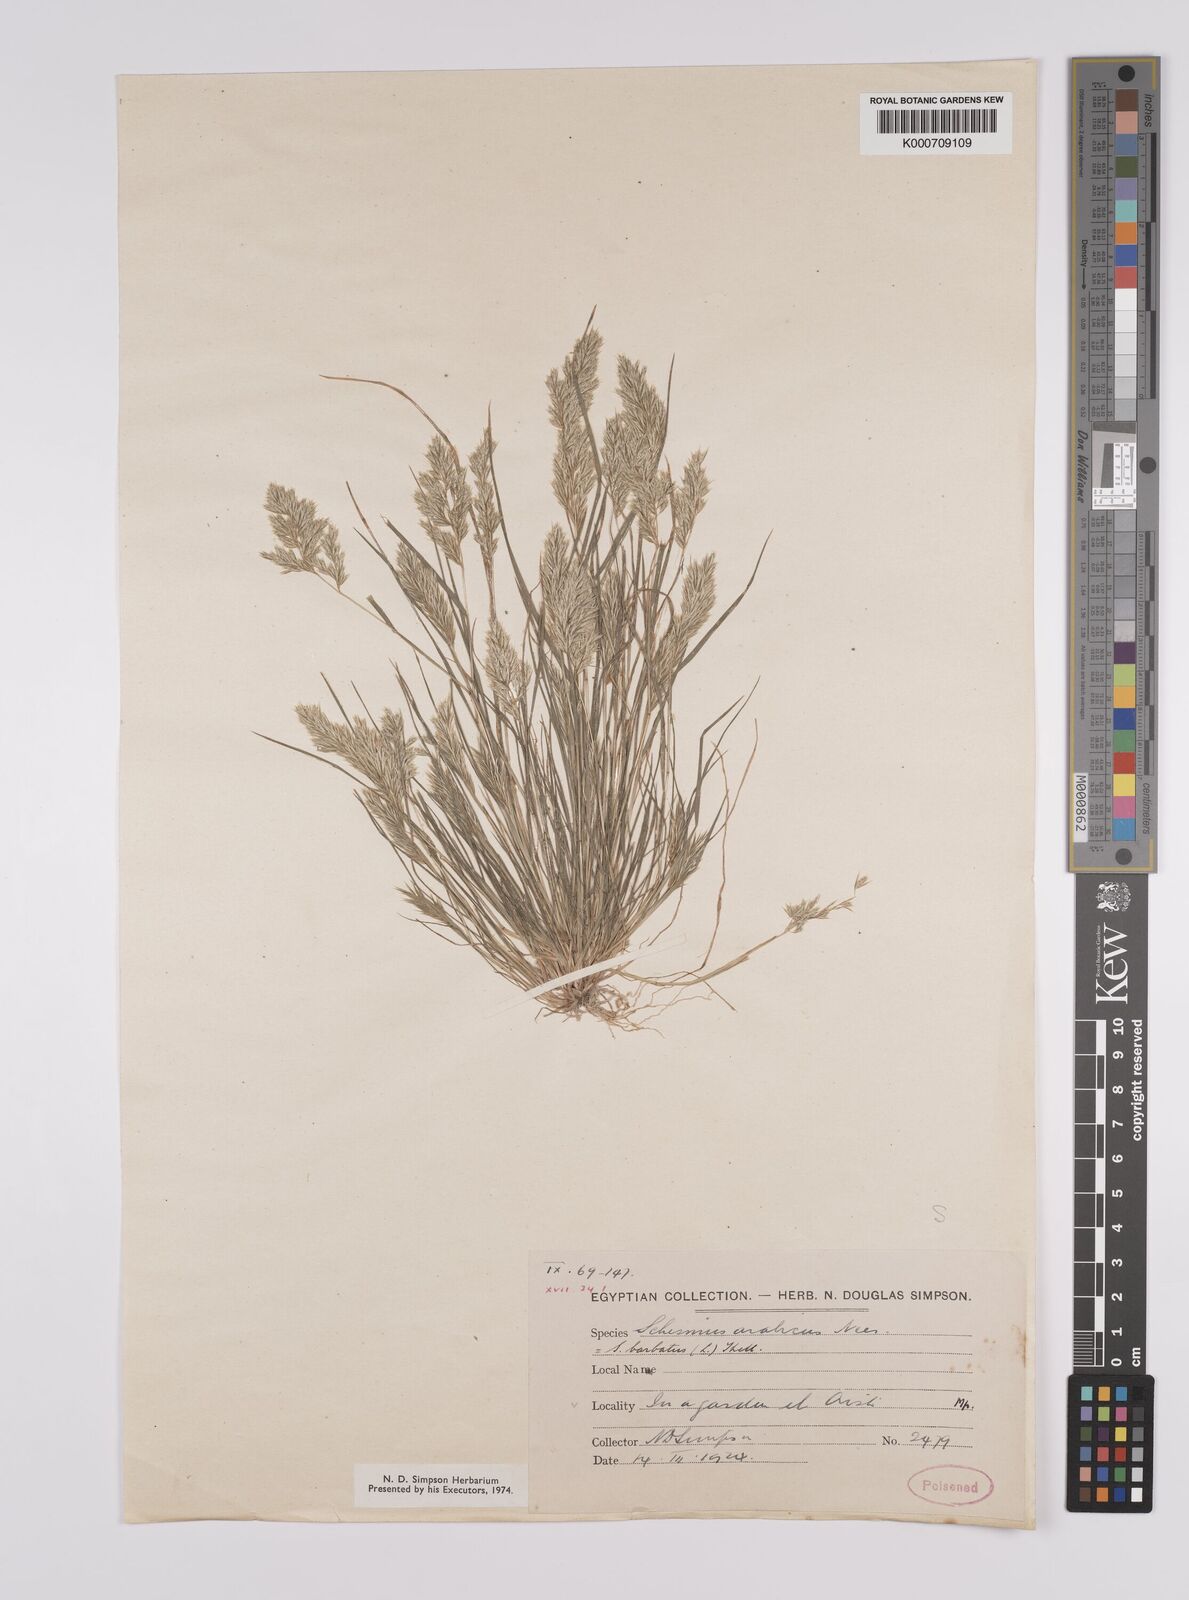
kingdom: Plantae
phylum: Tracheophyta
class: Liliopsida
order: Poales
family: Poaceae
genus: Schismus
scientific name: Schismus arabicus
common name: Arabian schismus
